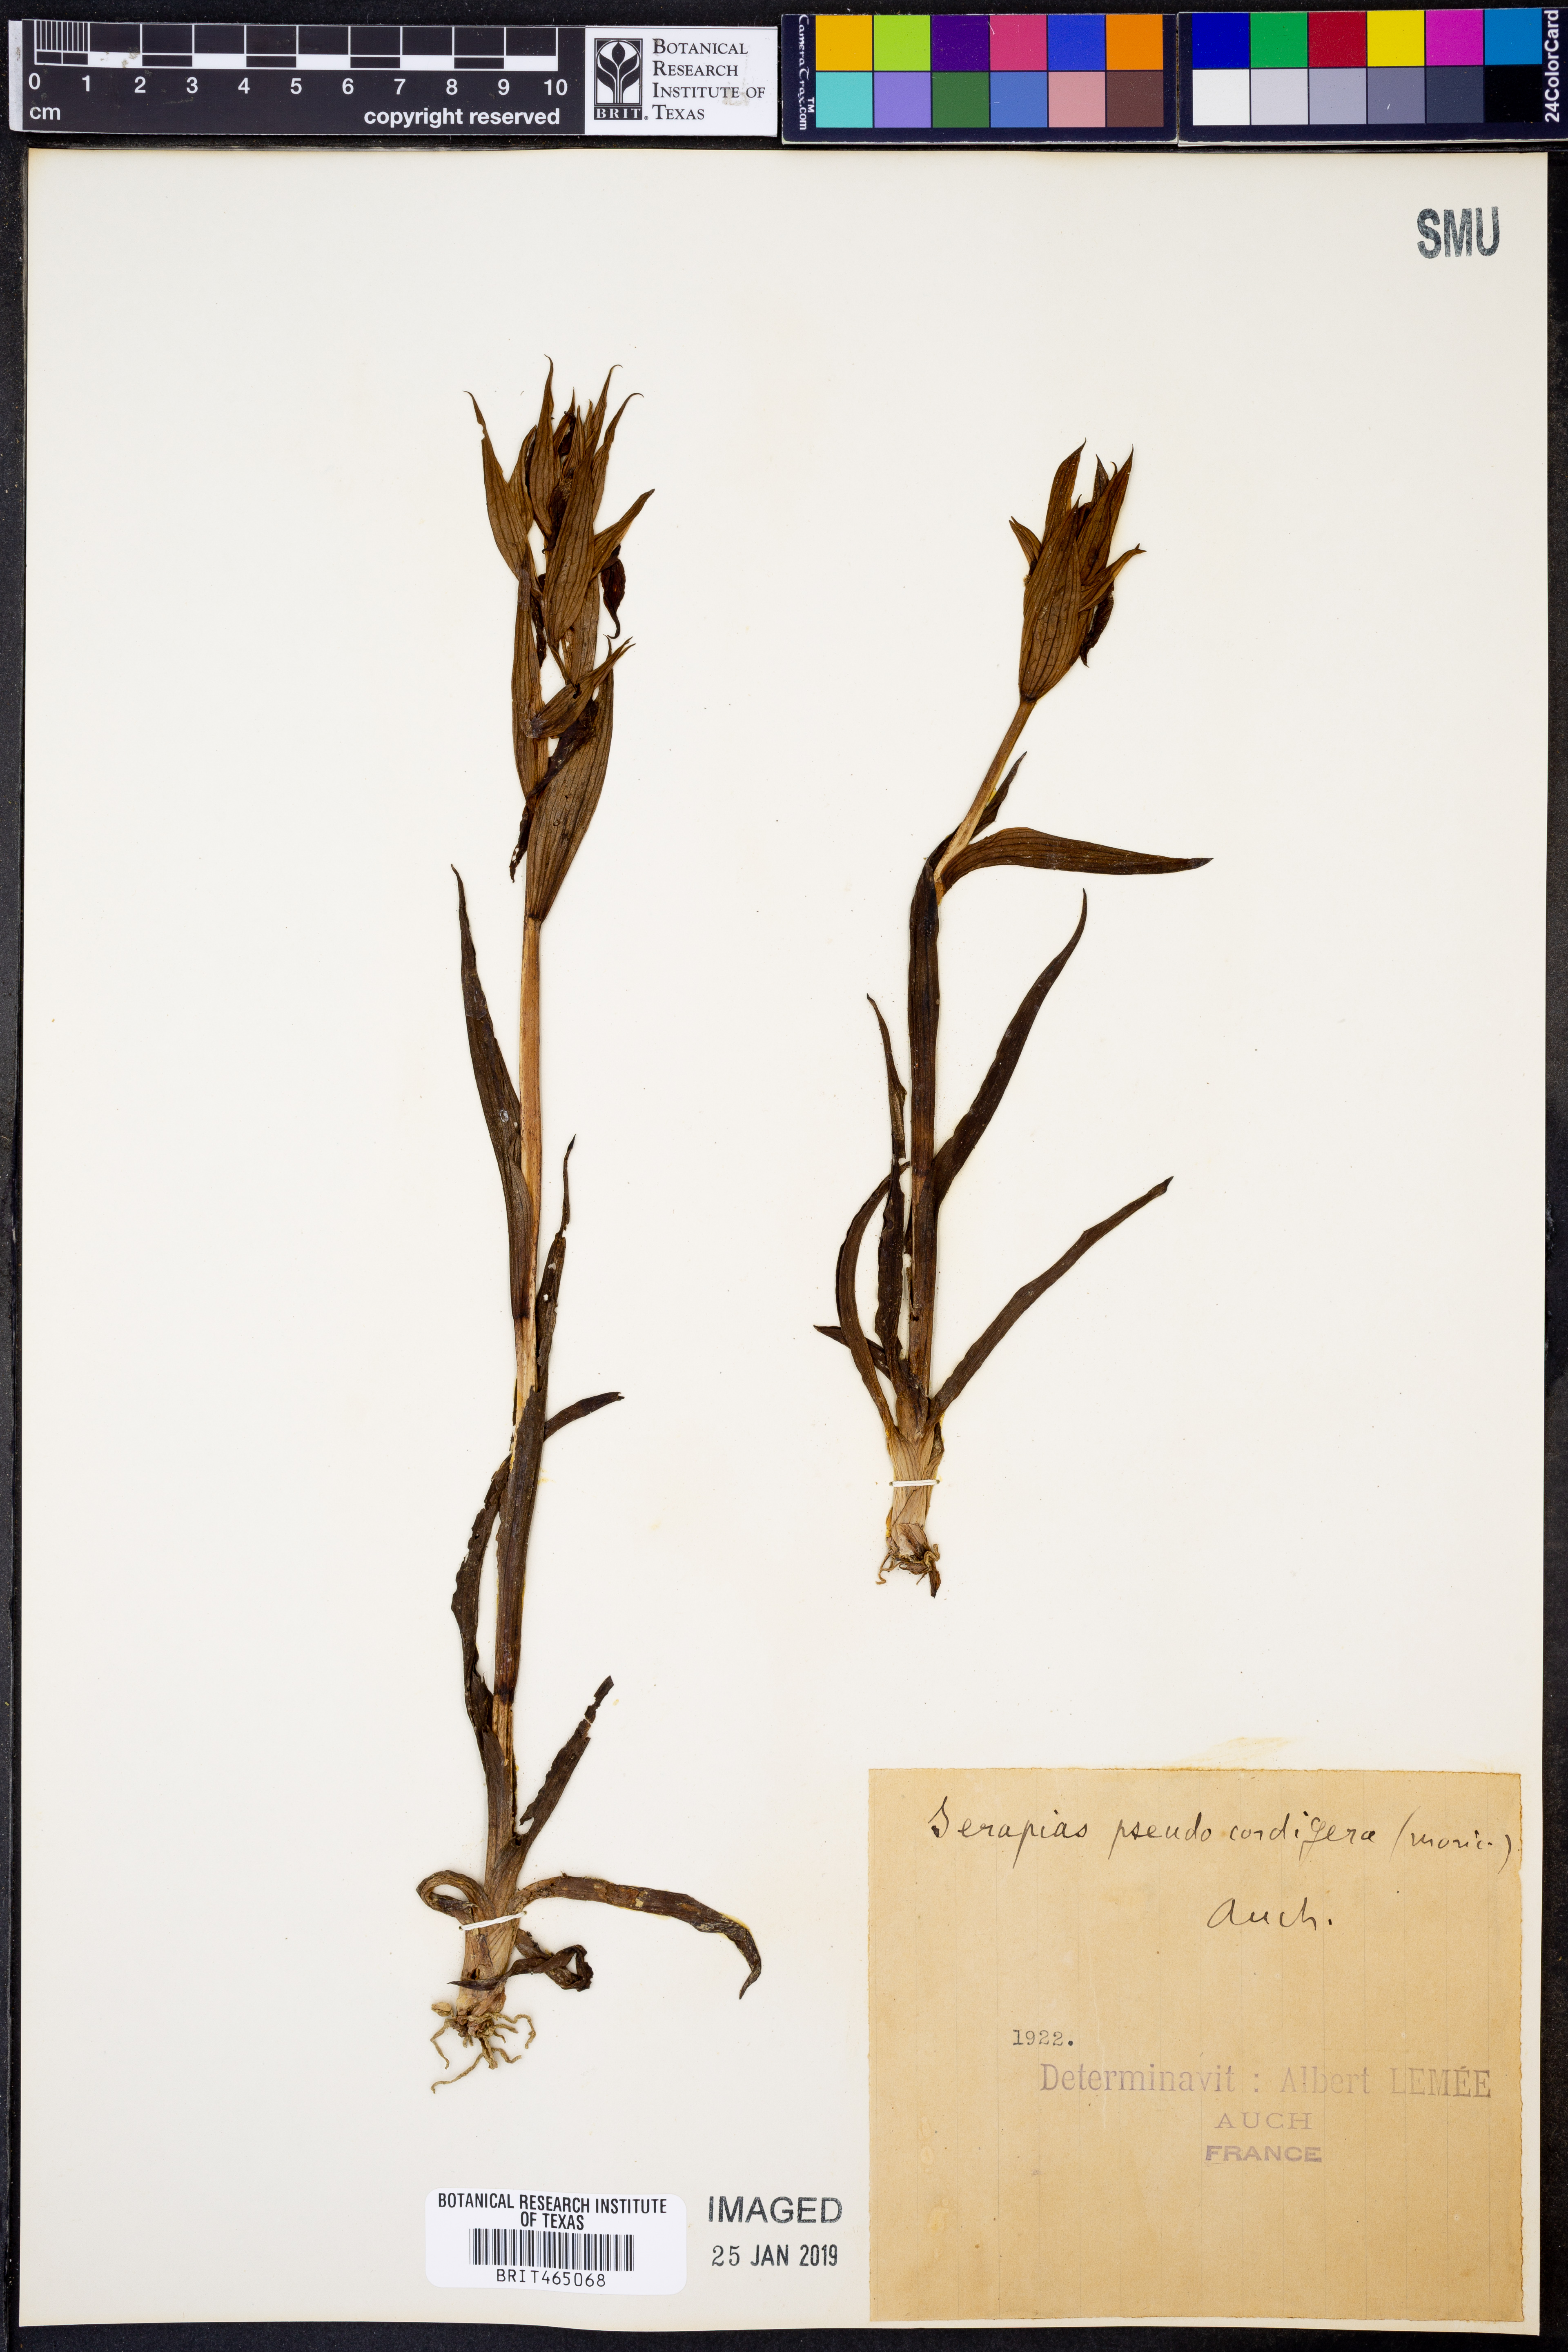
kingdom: Plantae
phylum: Tracheophyta
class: Liliopsida
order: Asparagales
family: Orchidaceae
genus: Serapias
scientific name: Serapias vomeracea
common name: Long-lipped tongue-orchid
